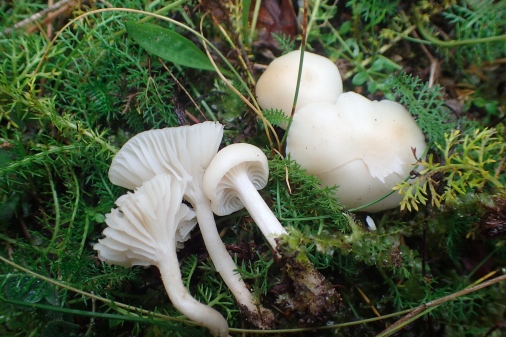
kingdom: Fungi
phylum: Basidiomycota
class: Agaricomycetes
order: Agaricales
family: Hygrophoraceae
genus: Cuphophyllus
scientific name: Cuphophyllus virgineus
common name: snehvid vokshat
